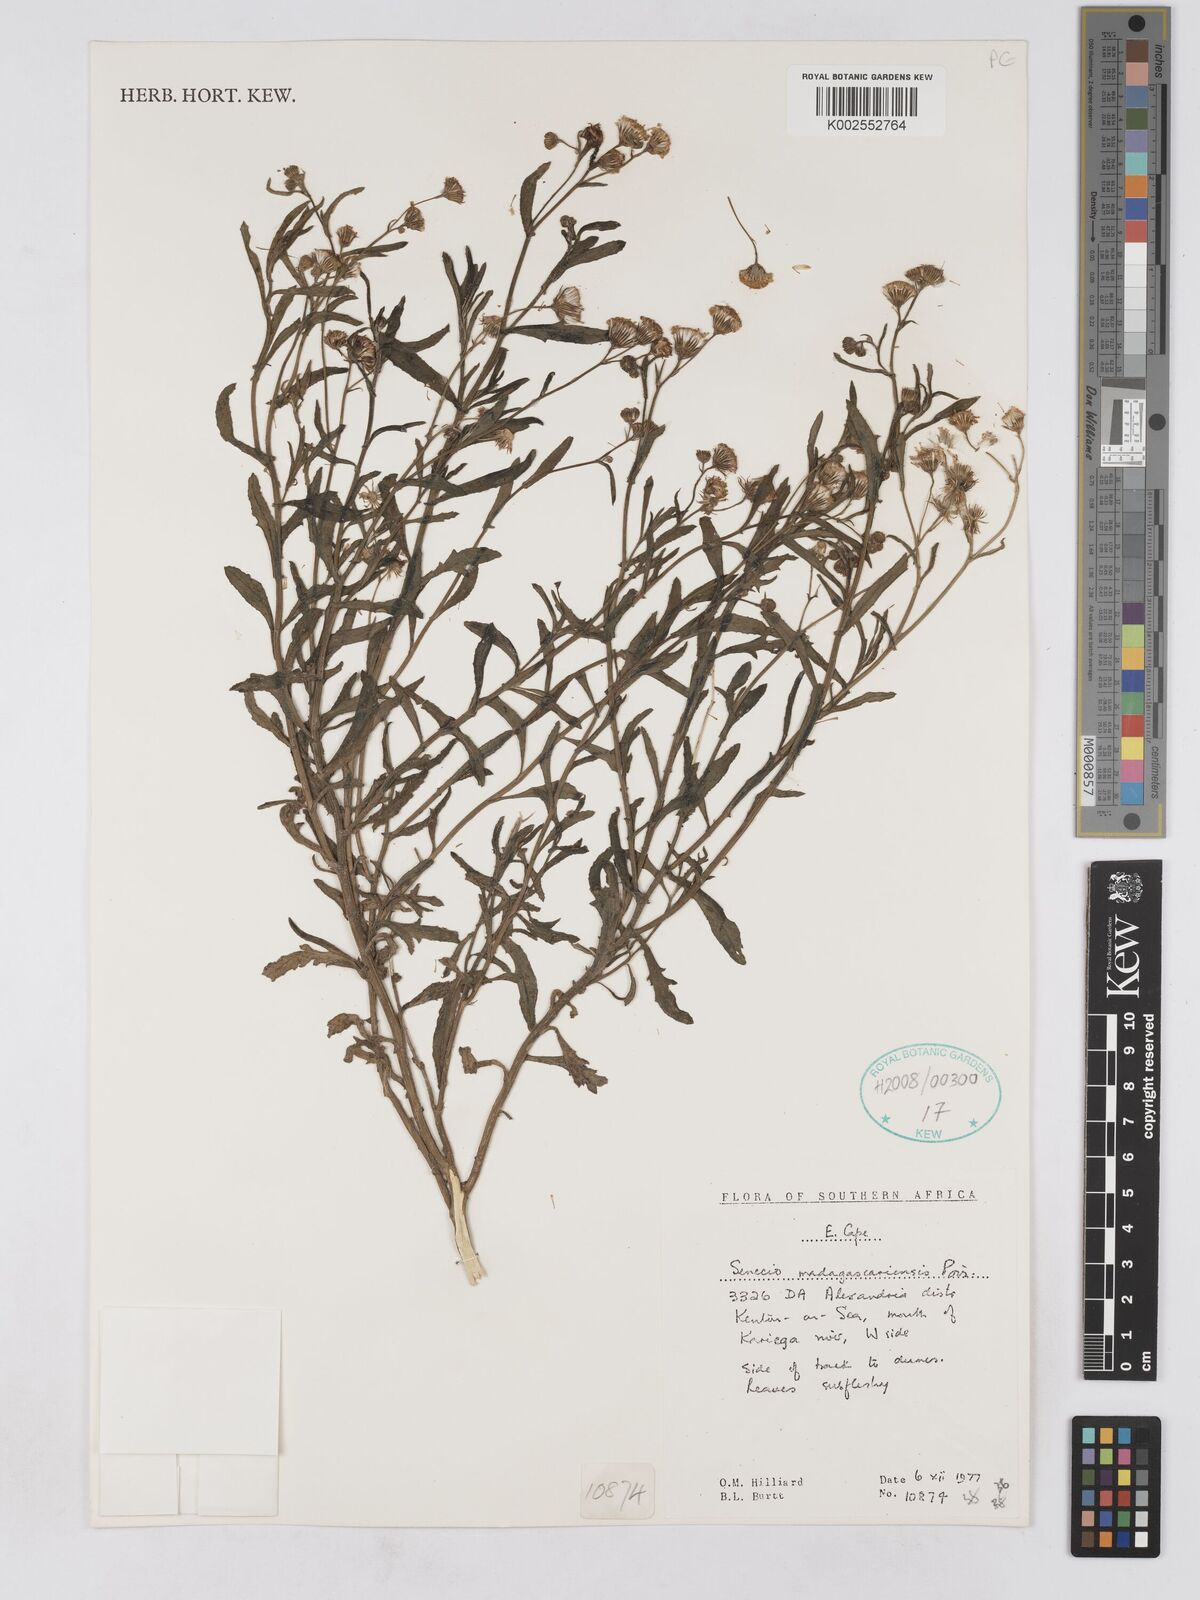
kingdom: Plantae
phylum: Tracheophyta
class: Magnoliopsida
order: Asterales
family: Asteraceae
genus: Senecio
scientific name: Senecio madagascariensis
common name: Madagascar ragwort
